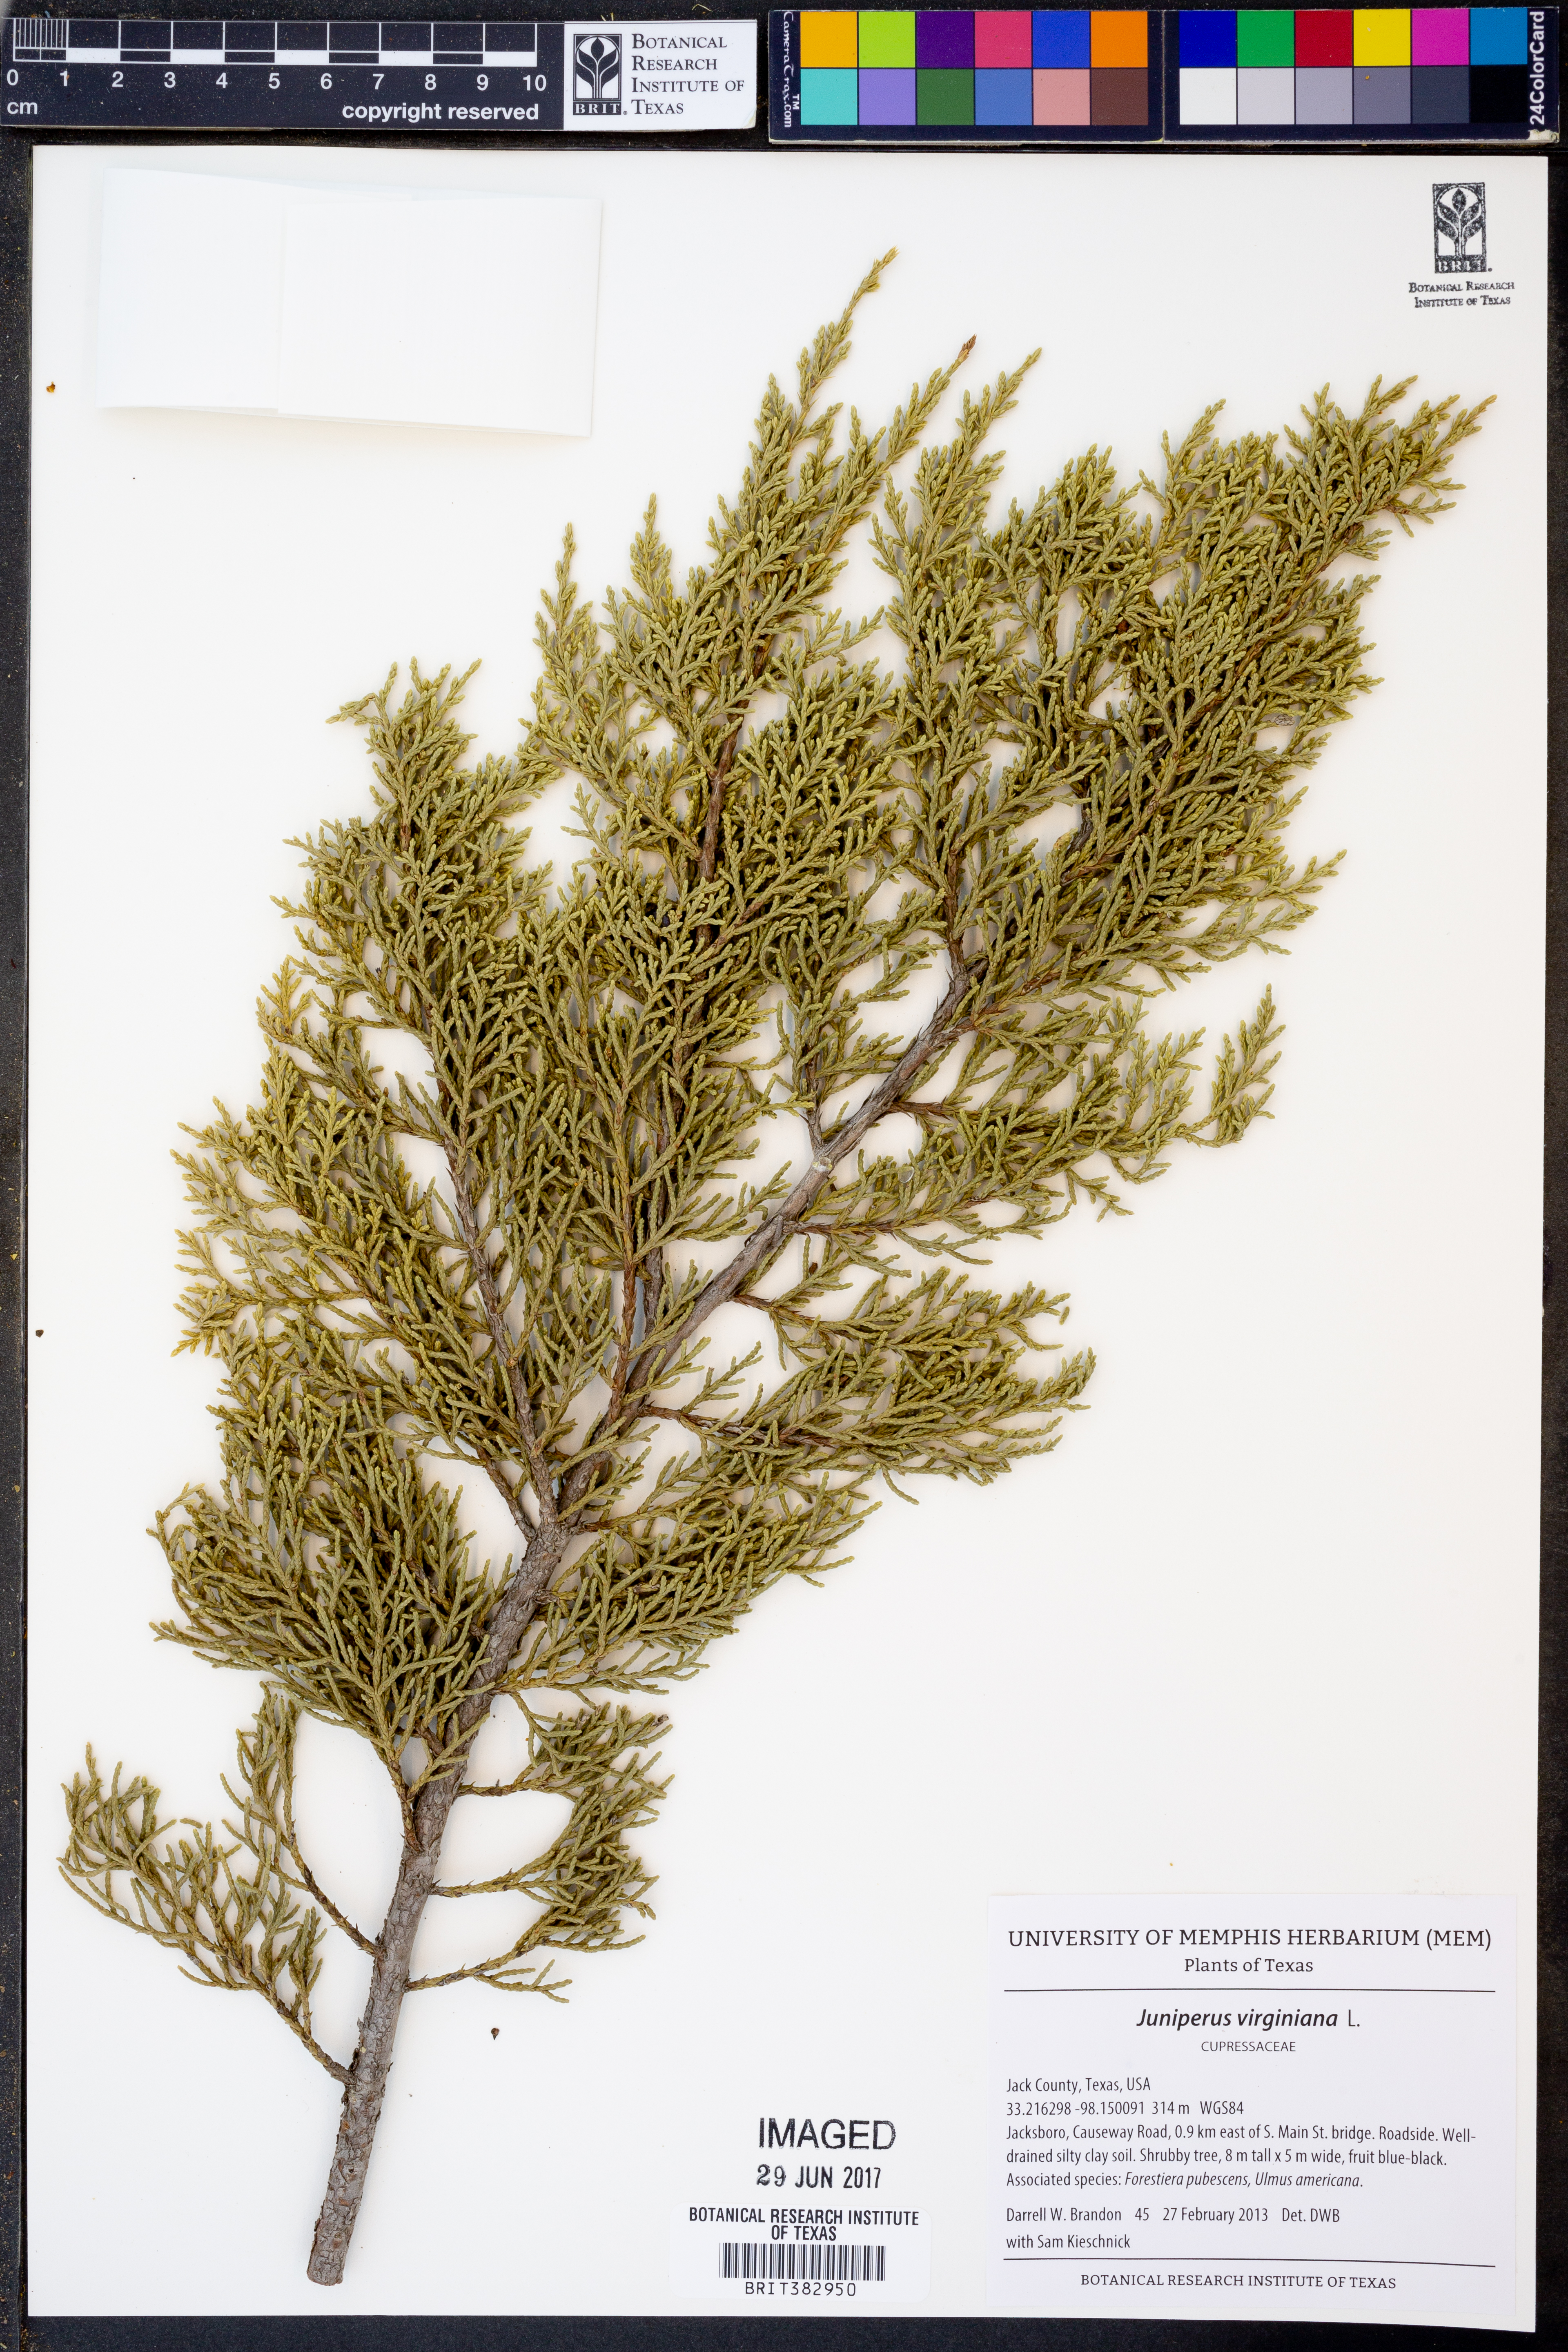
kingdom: Plantae
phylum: Tracheophyta
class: Pinopsida
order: Pinales
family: Cupressaceae
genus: Juniperus
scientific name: Juniperus virginiana
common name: Red juniper
